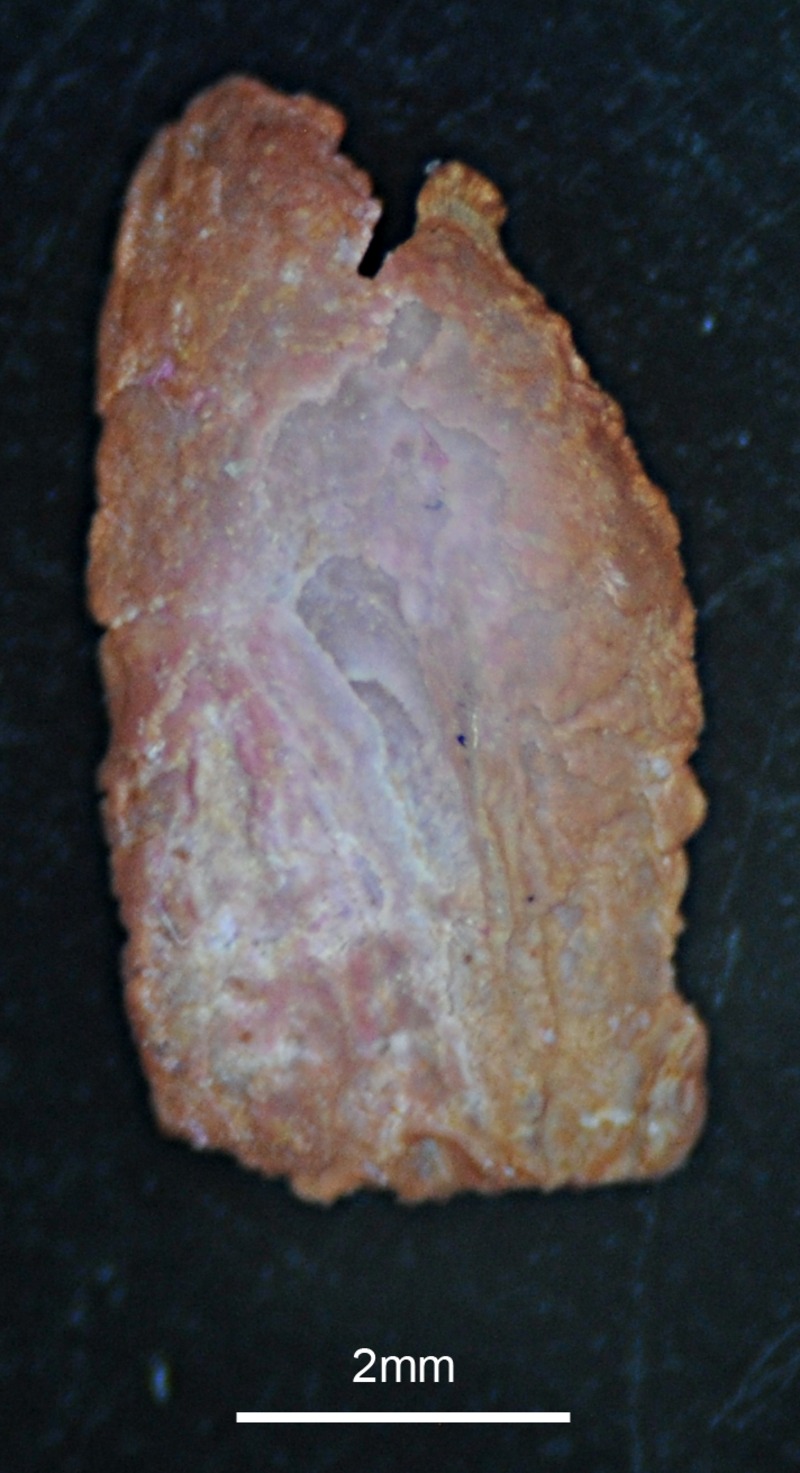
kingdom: Animalia
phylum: Chordata
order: Scorpaeniformes
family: Scorpaenidae
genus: Scorpaena
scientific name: Scorpaena porcus
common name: Black scorpionfish
